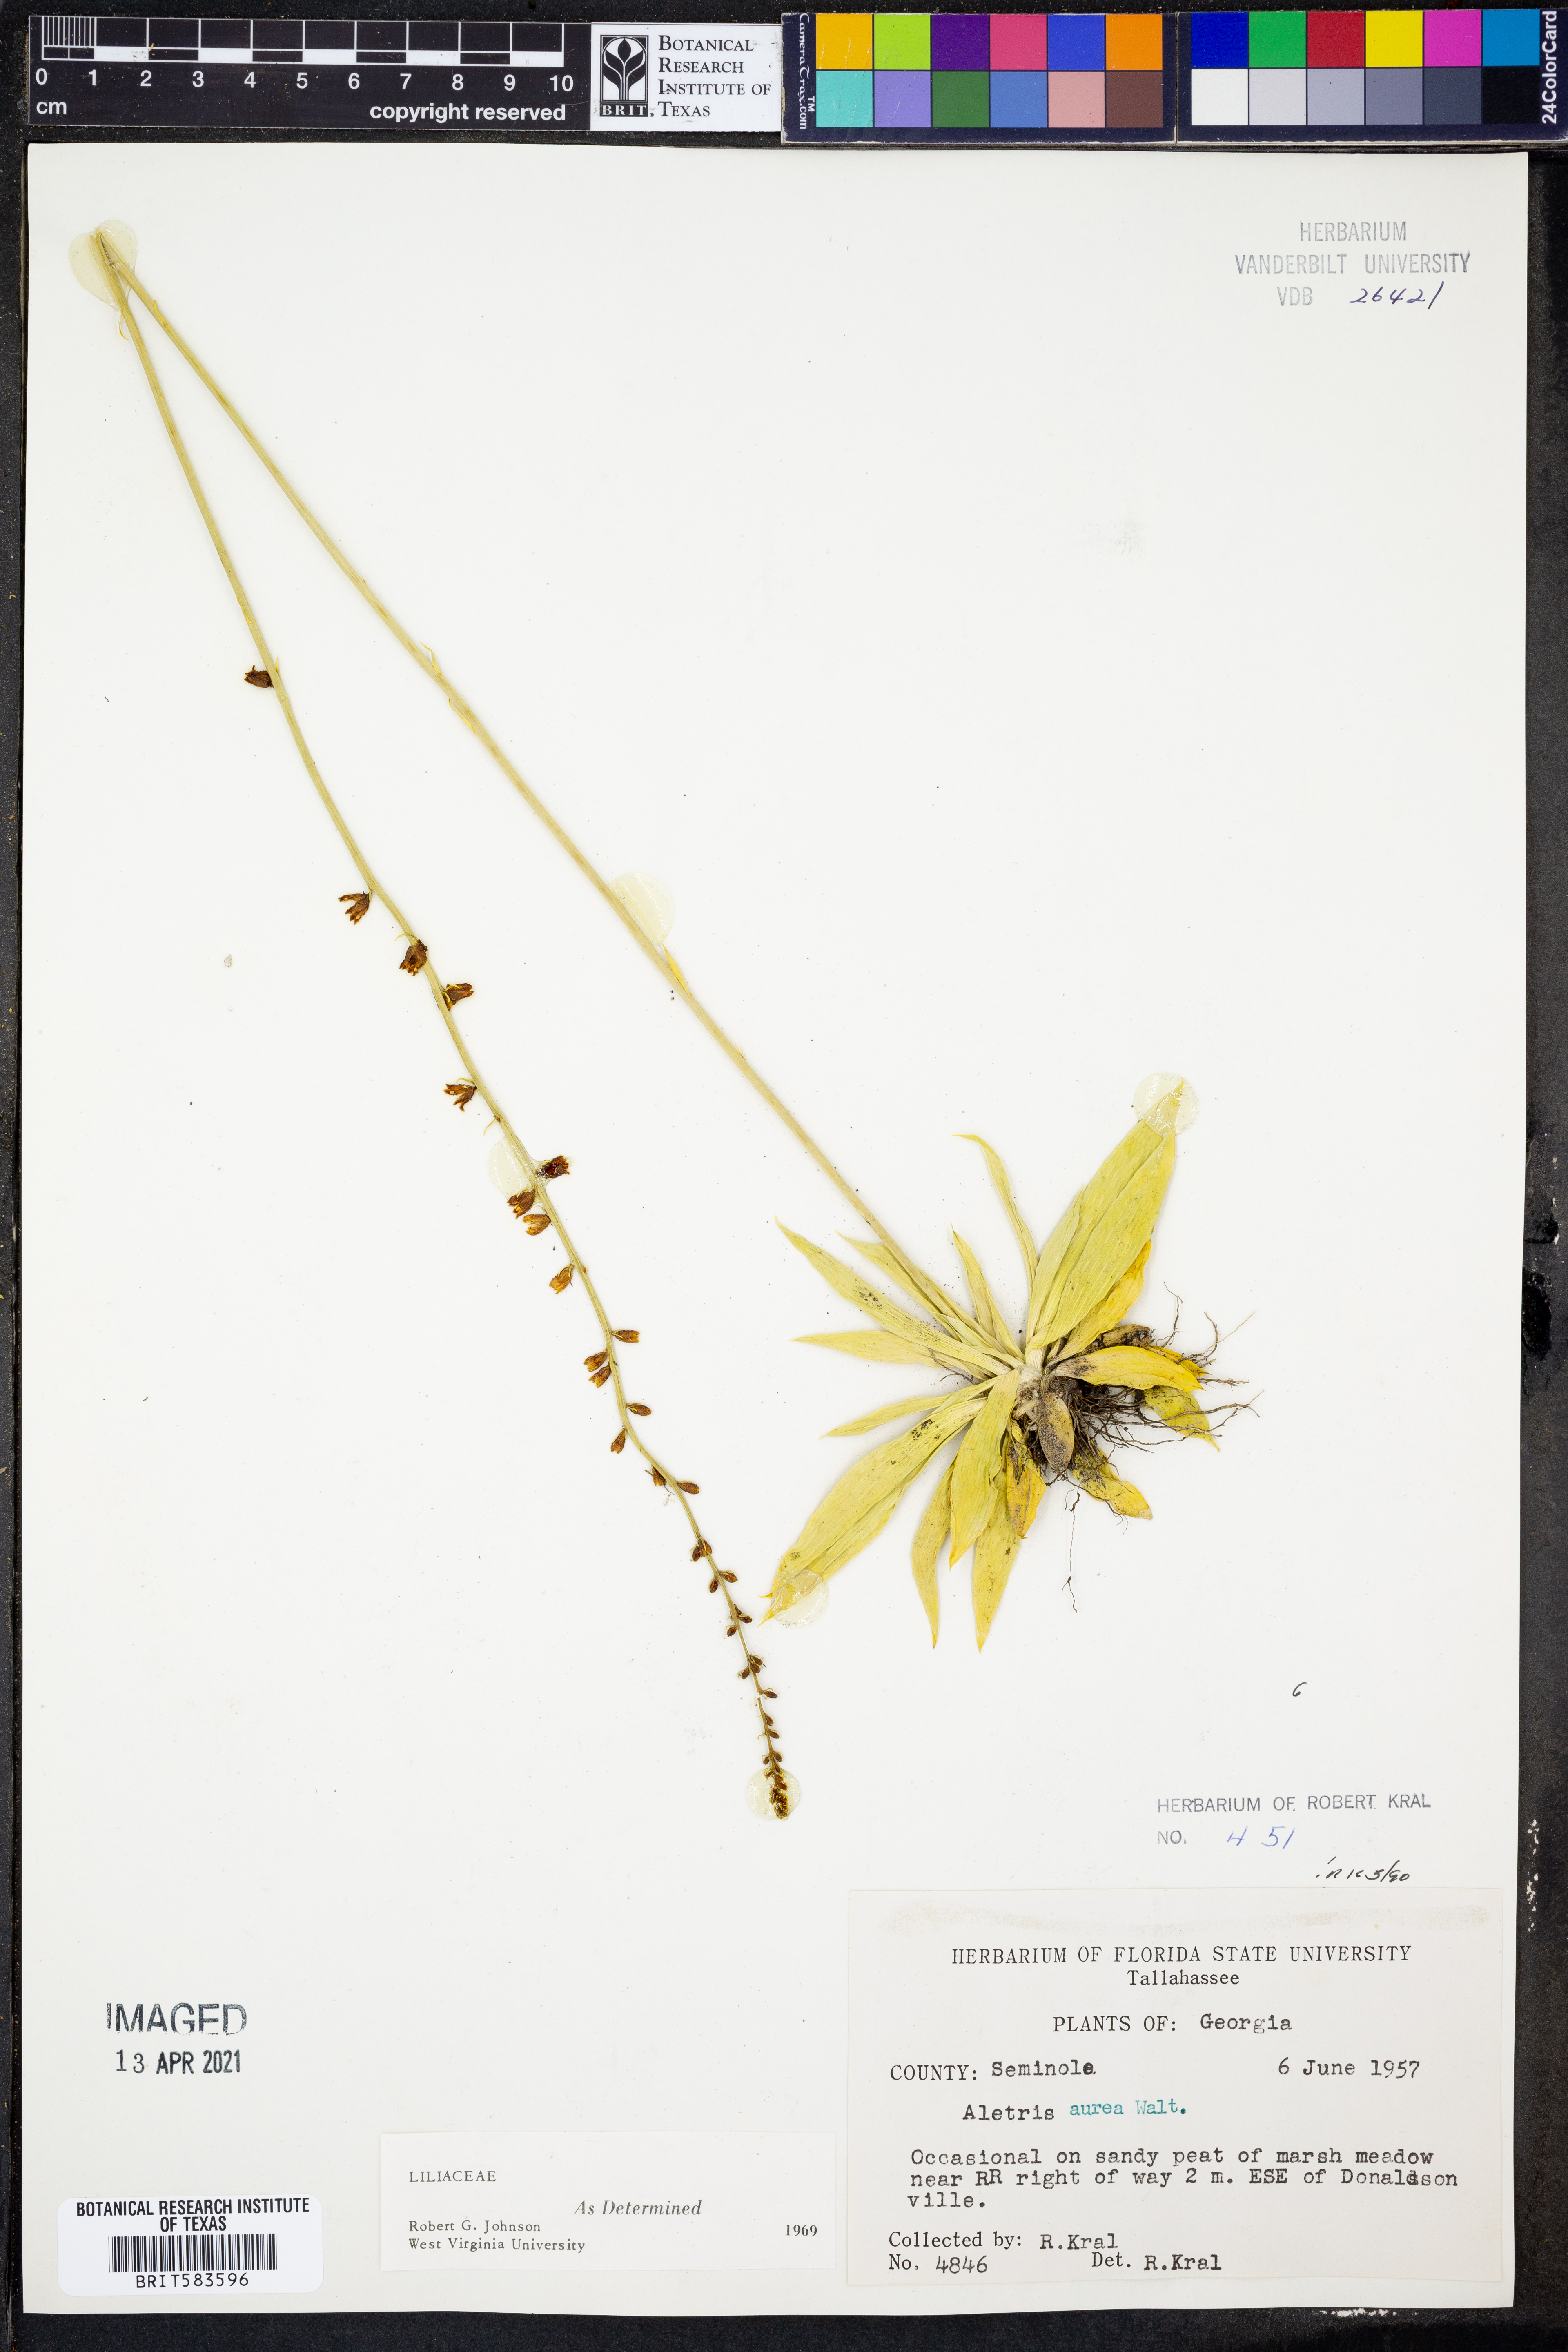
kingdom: Plantae
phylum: Tracheophyta
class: Liliopsida
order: Dioscoreales
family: Nartheciaceae
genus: Aletris
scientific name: Aletris aurea
